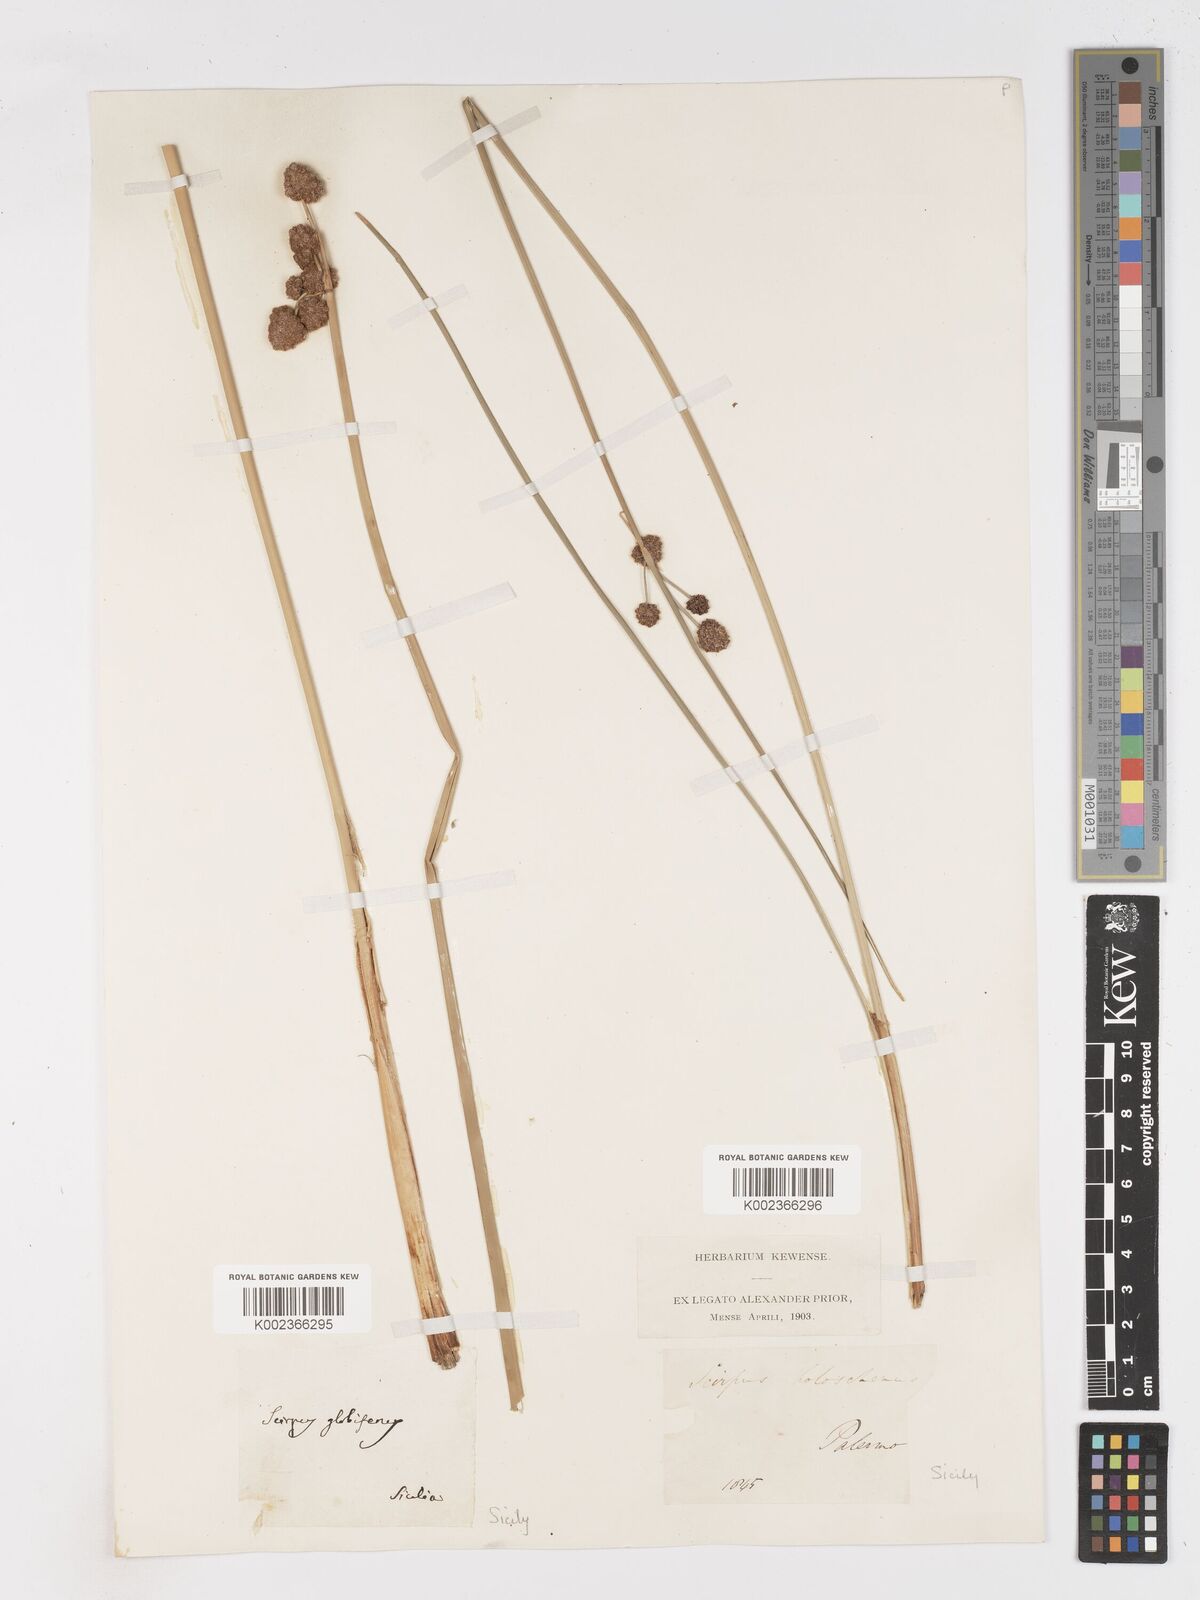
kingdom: Plantae
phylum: Tracheophyta
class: Liliopsida
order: Poales
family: Cyperaceae
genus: Scirpoides
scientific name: Scirpoides holoschoenus
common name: Round-headed club-rush
